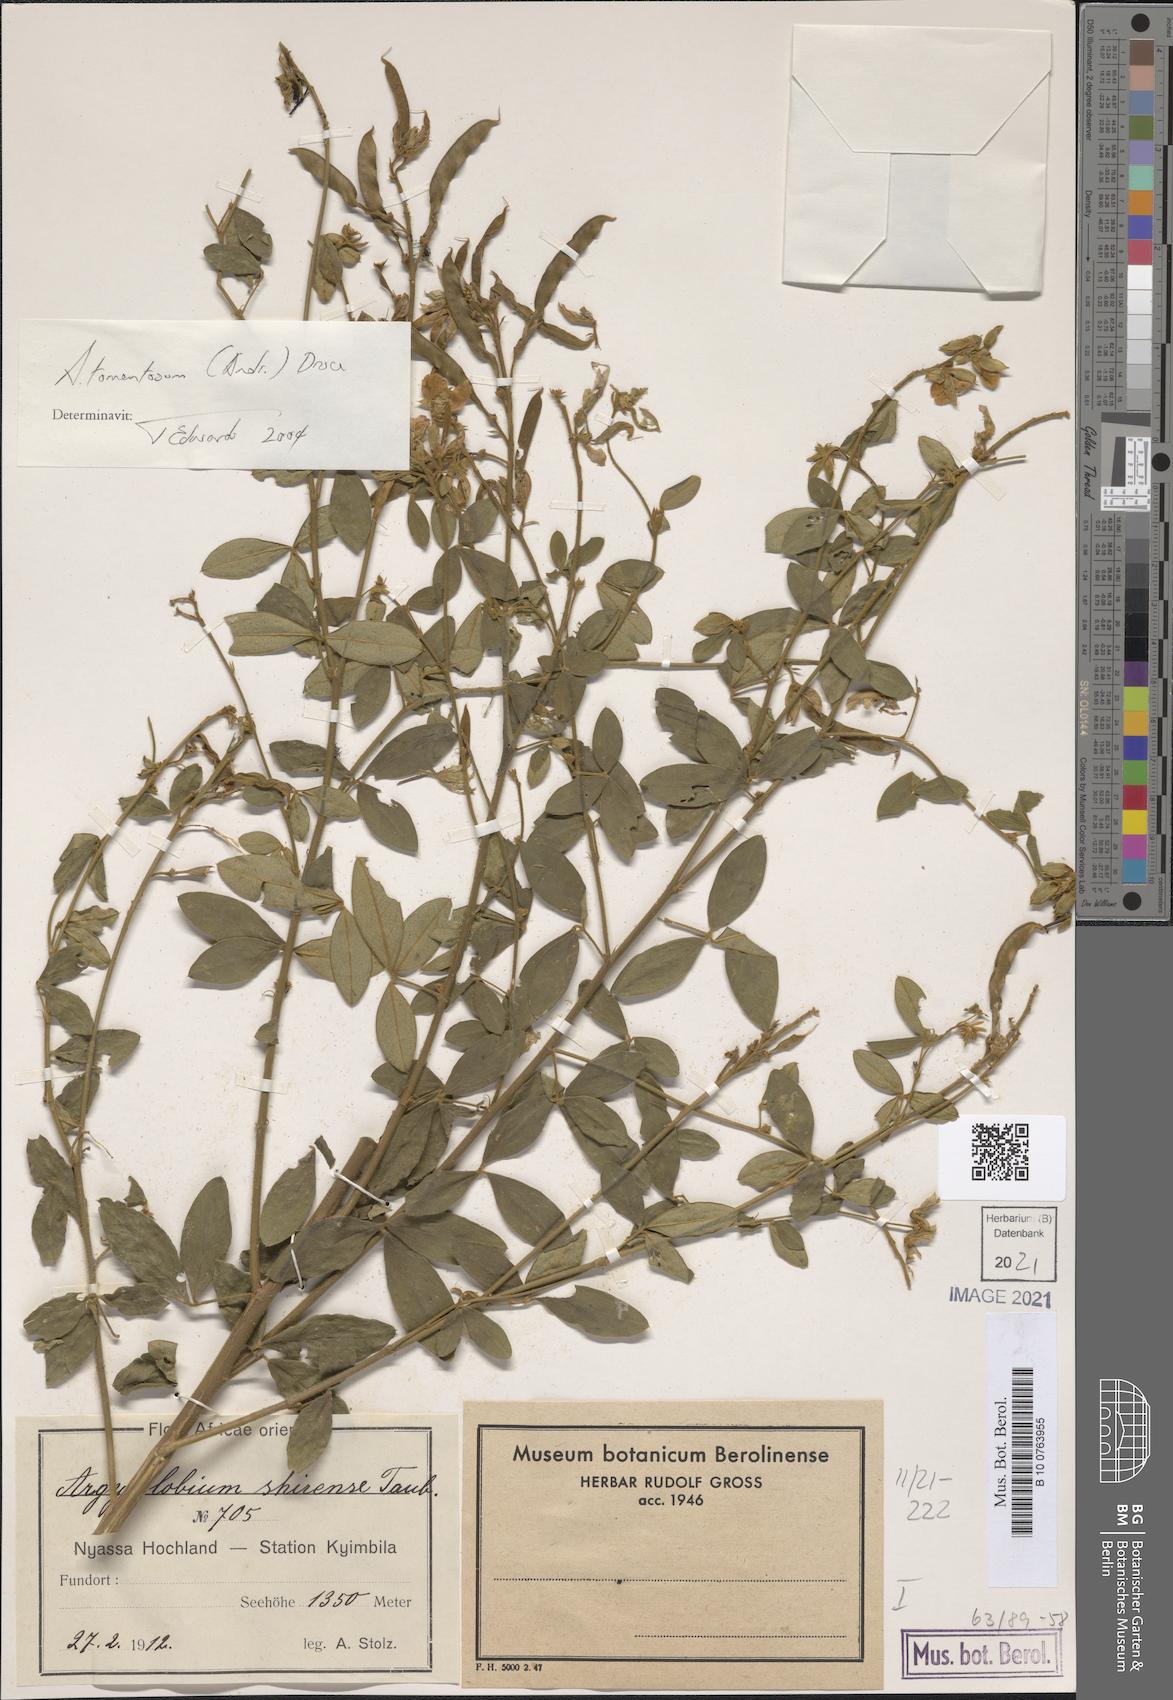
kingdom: Plantae
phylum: Tracheophyta
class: Magnoliopsida
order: Fabales
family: Fabaceae
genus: Argyrolobium
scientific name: Argyrolobium tomentosum
